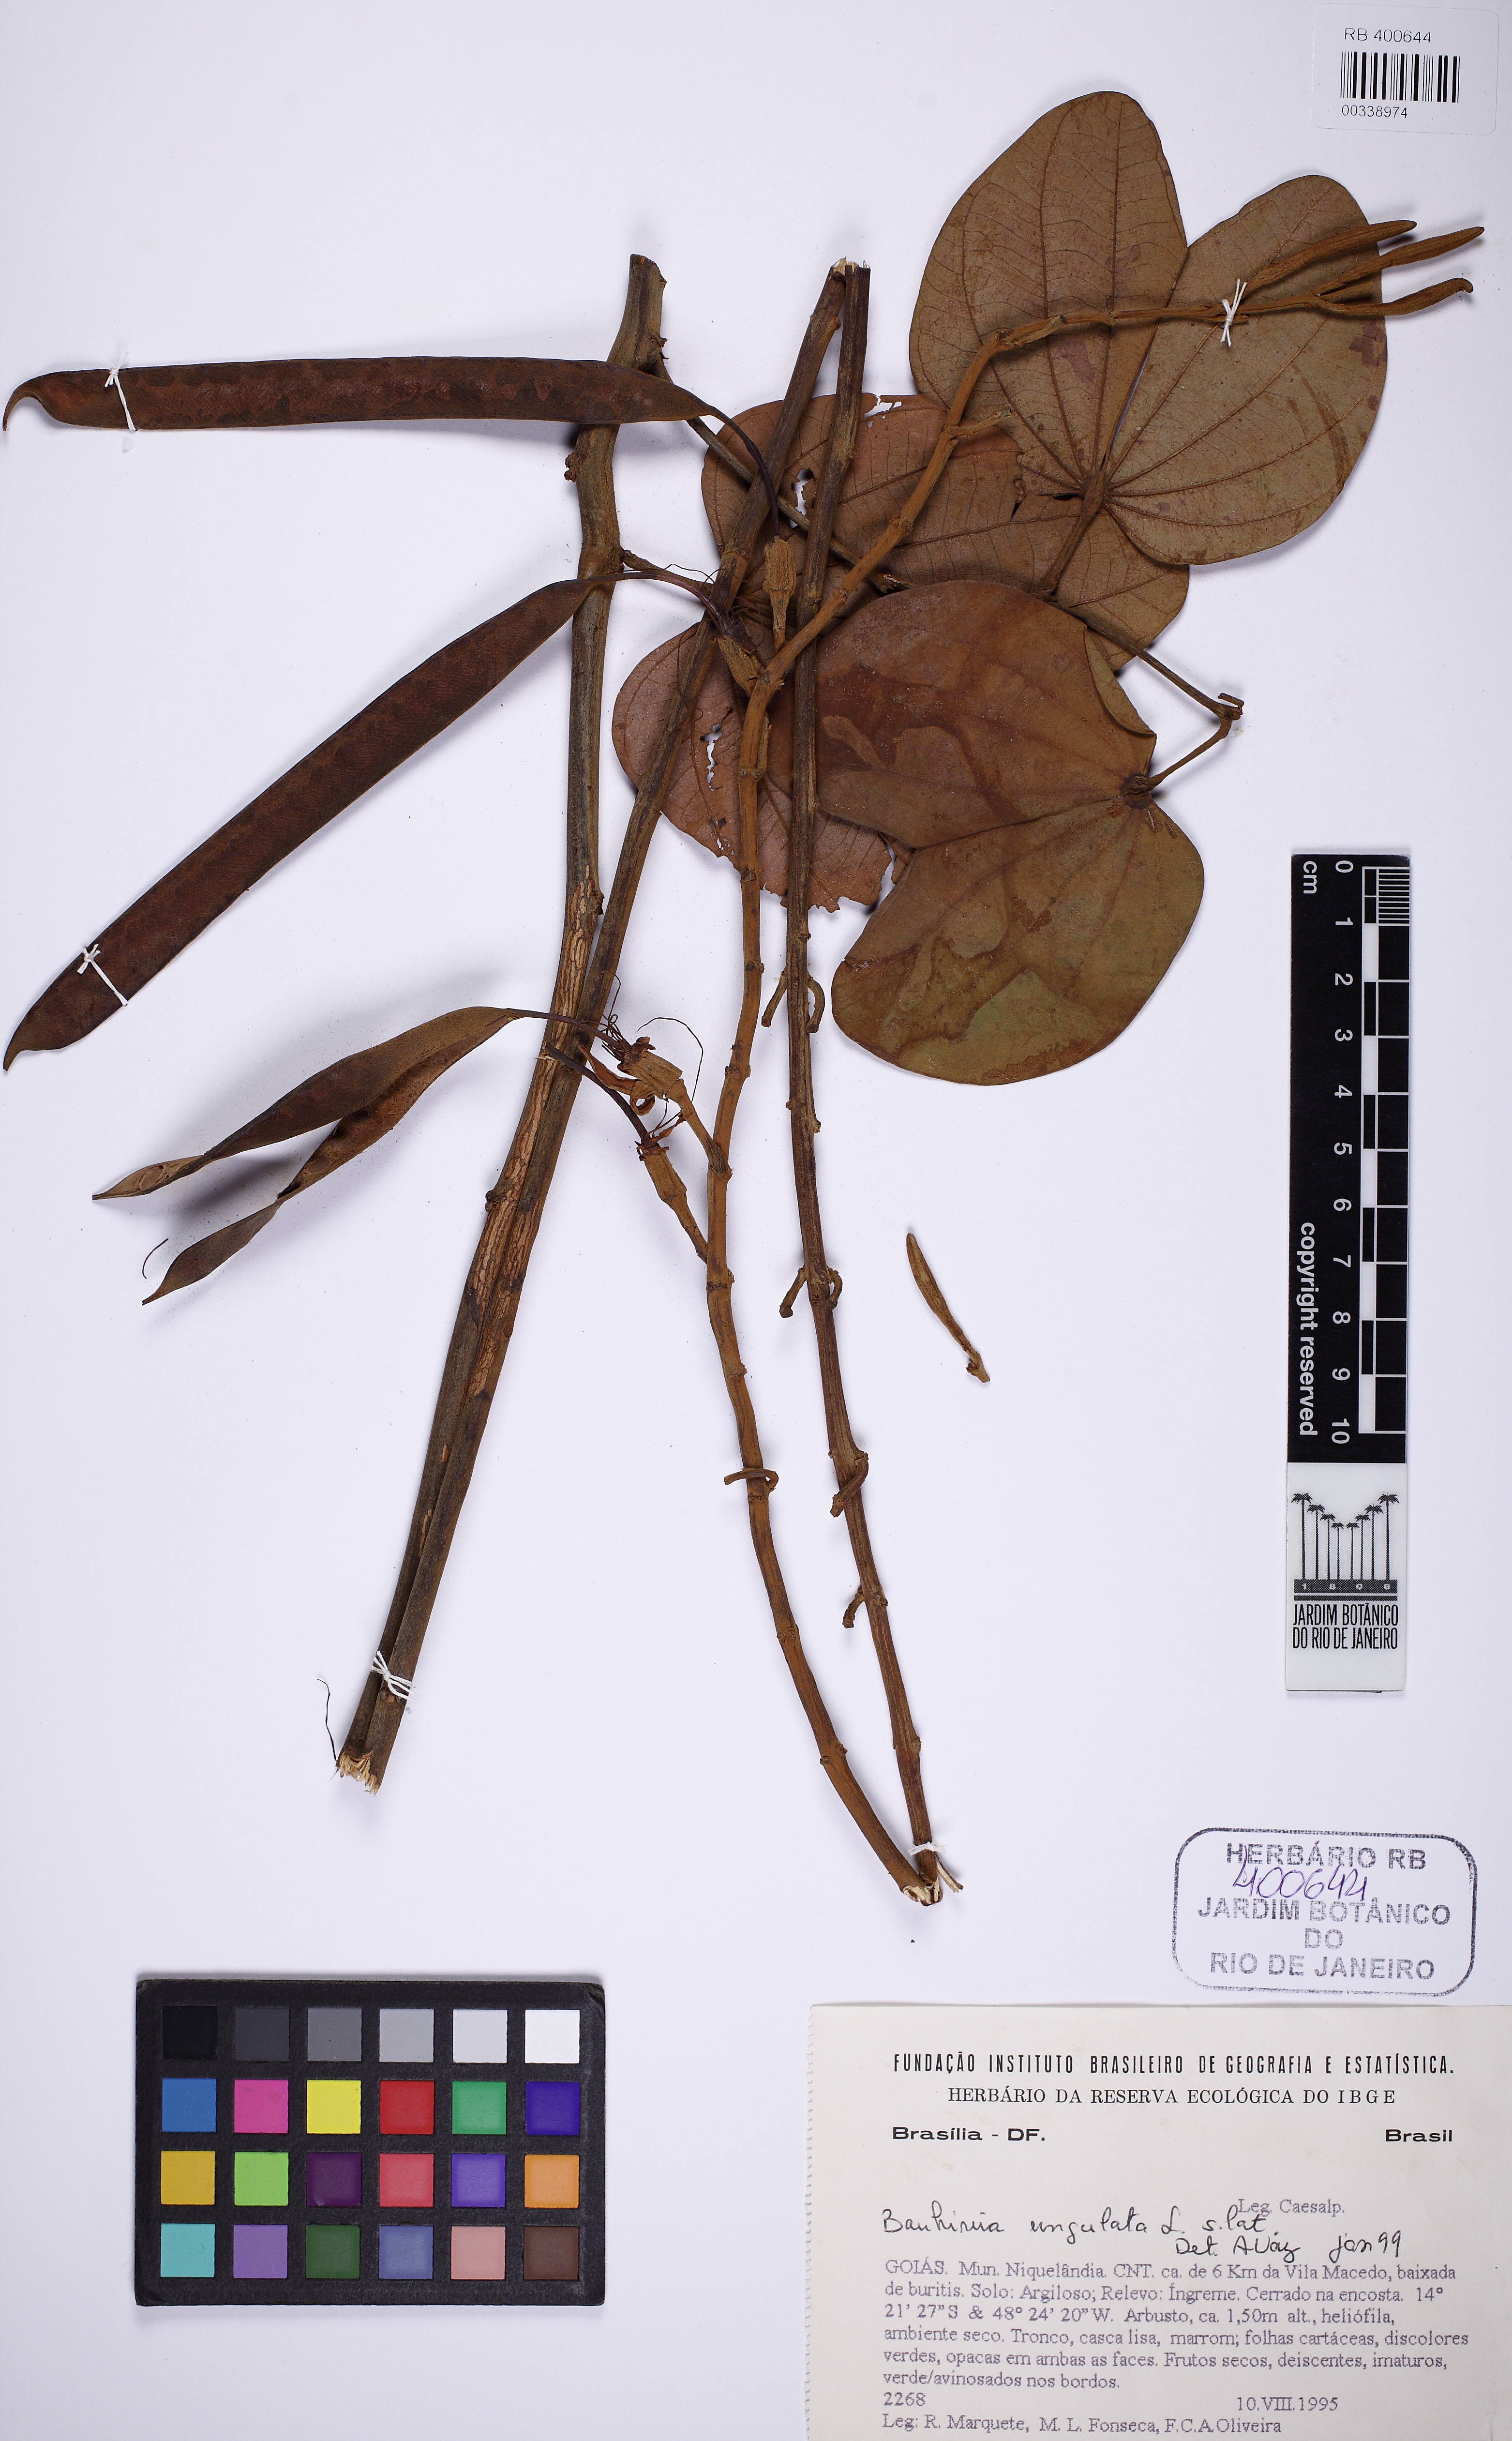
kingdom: Plantae
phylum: Tracheophyta
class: Magnoliopsida
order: Fabales
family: Fabaceae
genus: Bauhinia
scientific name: Bauhinia ungulata
